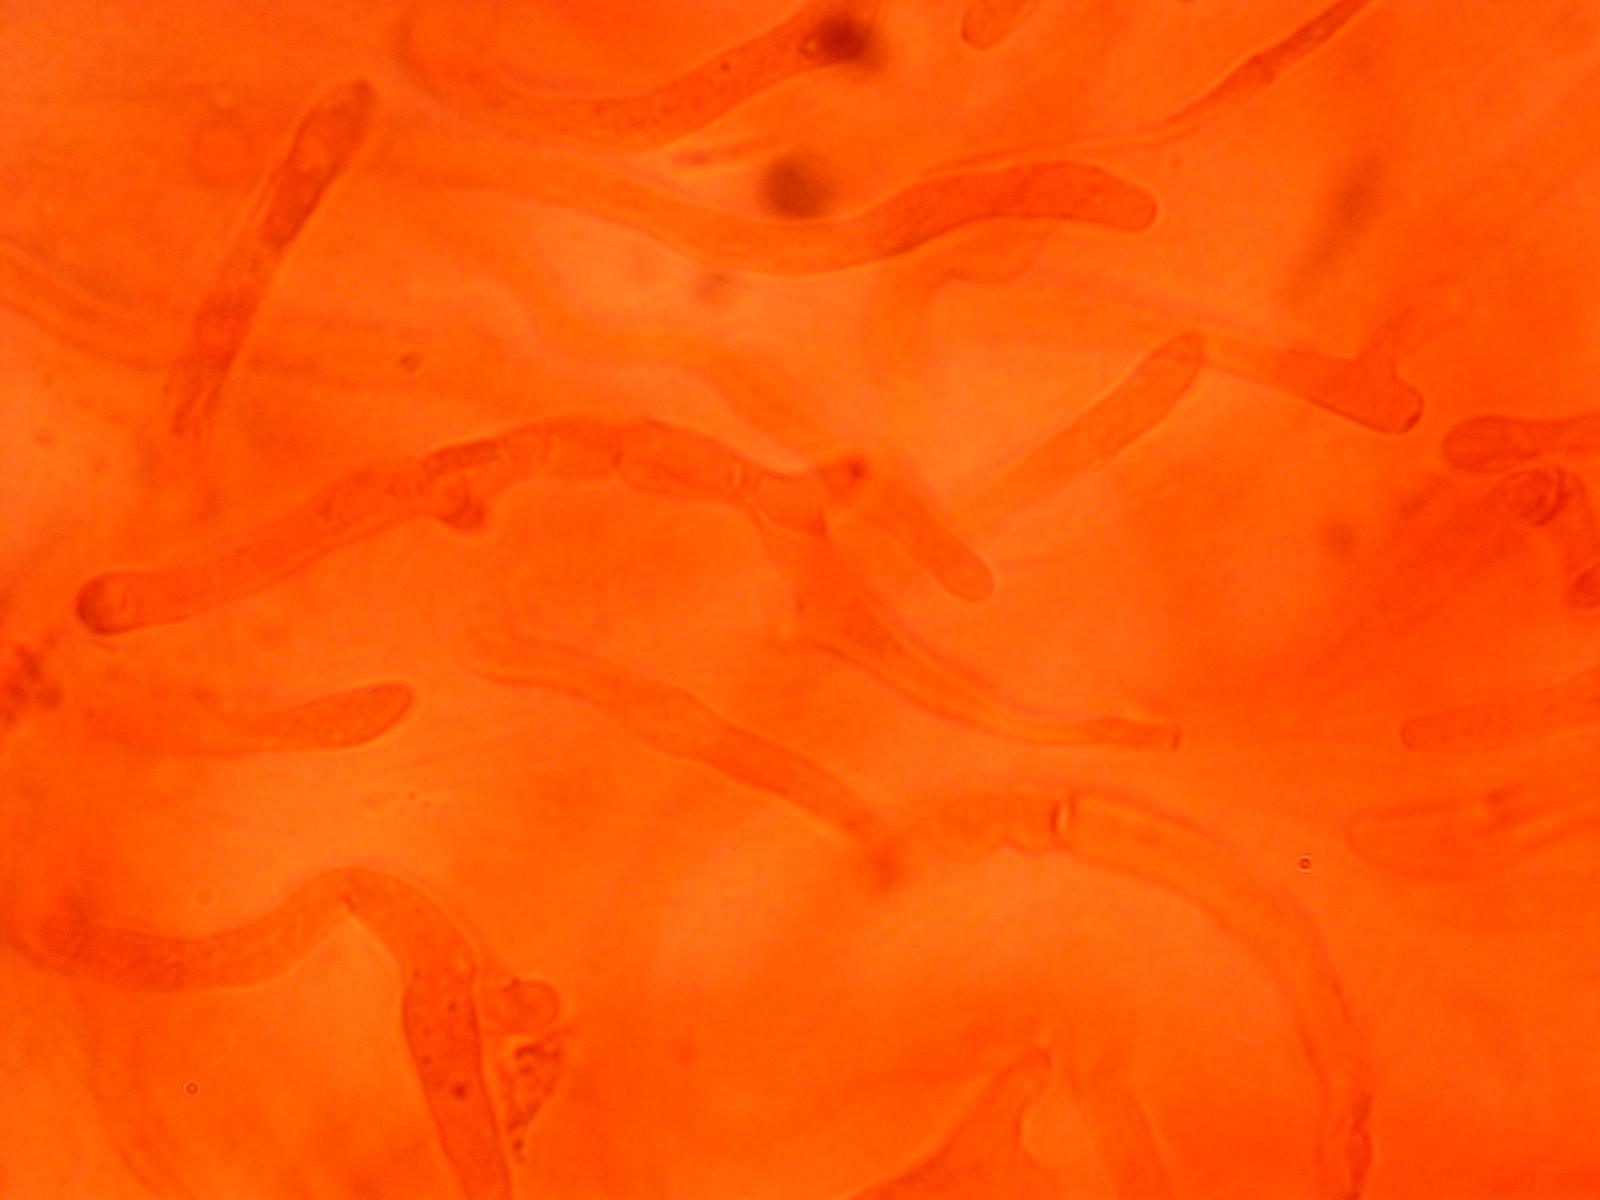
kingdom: Fungi
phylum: Basidiomycota
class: Agaricomycetes
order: Russulales
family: Russulaceae
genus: Russula
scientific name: Russula
